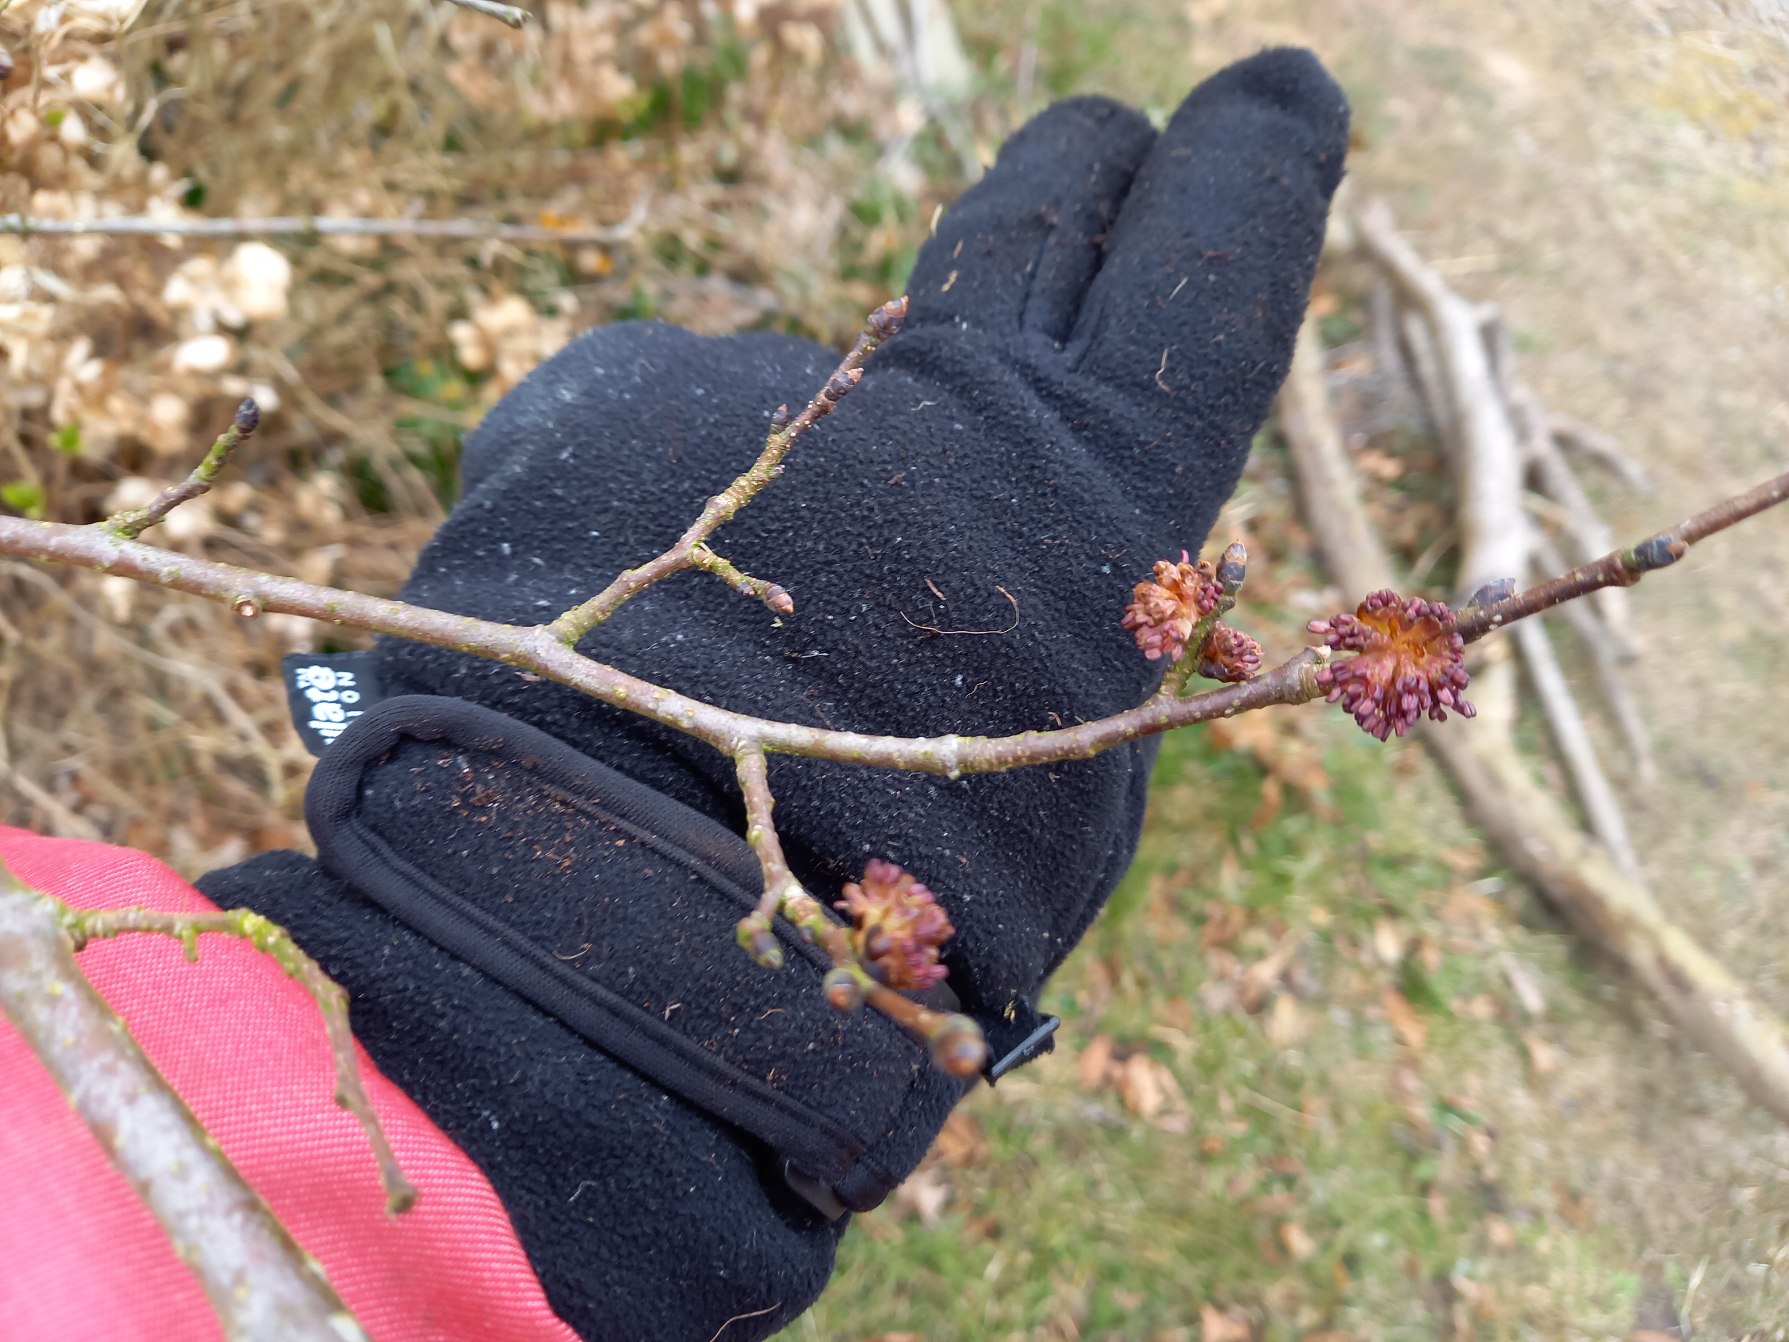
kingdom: Plantae
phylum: Tracheophyta
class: Magnoliopsida
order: Rosales
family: Ulmaceae
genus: Ulmus
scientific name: Ulmus glabra
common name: Skov-elm/storbladet elm
